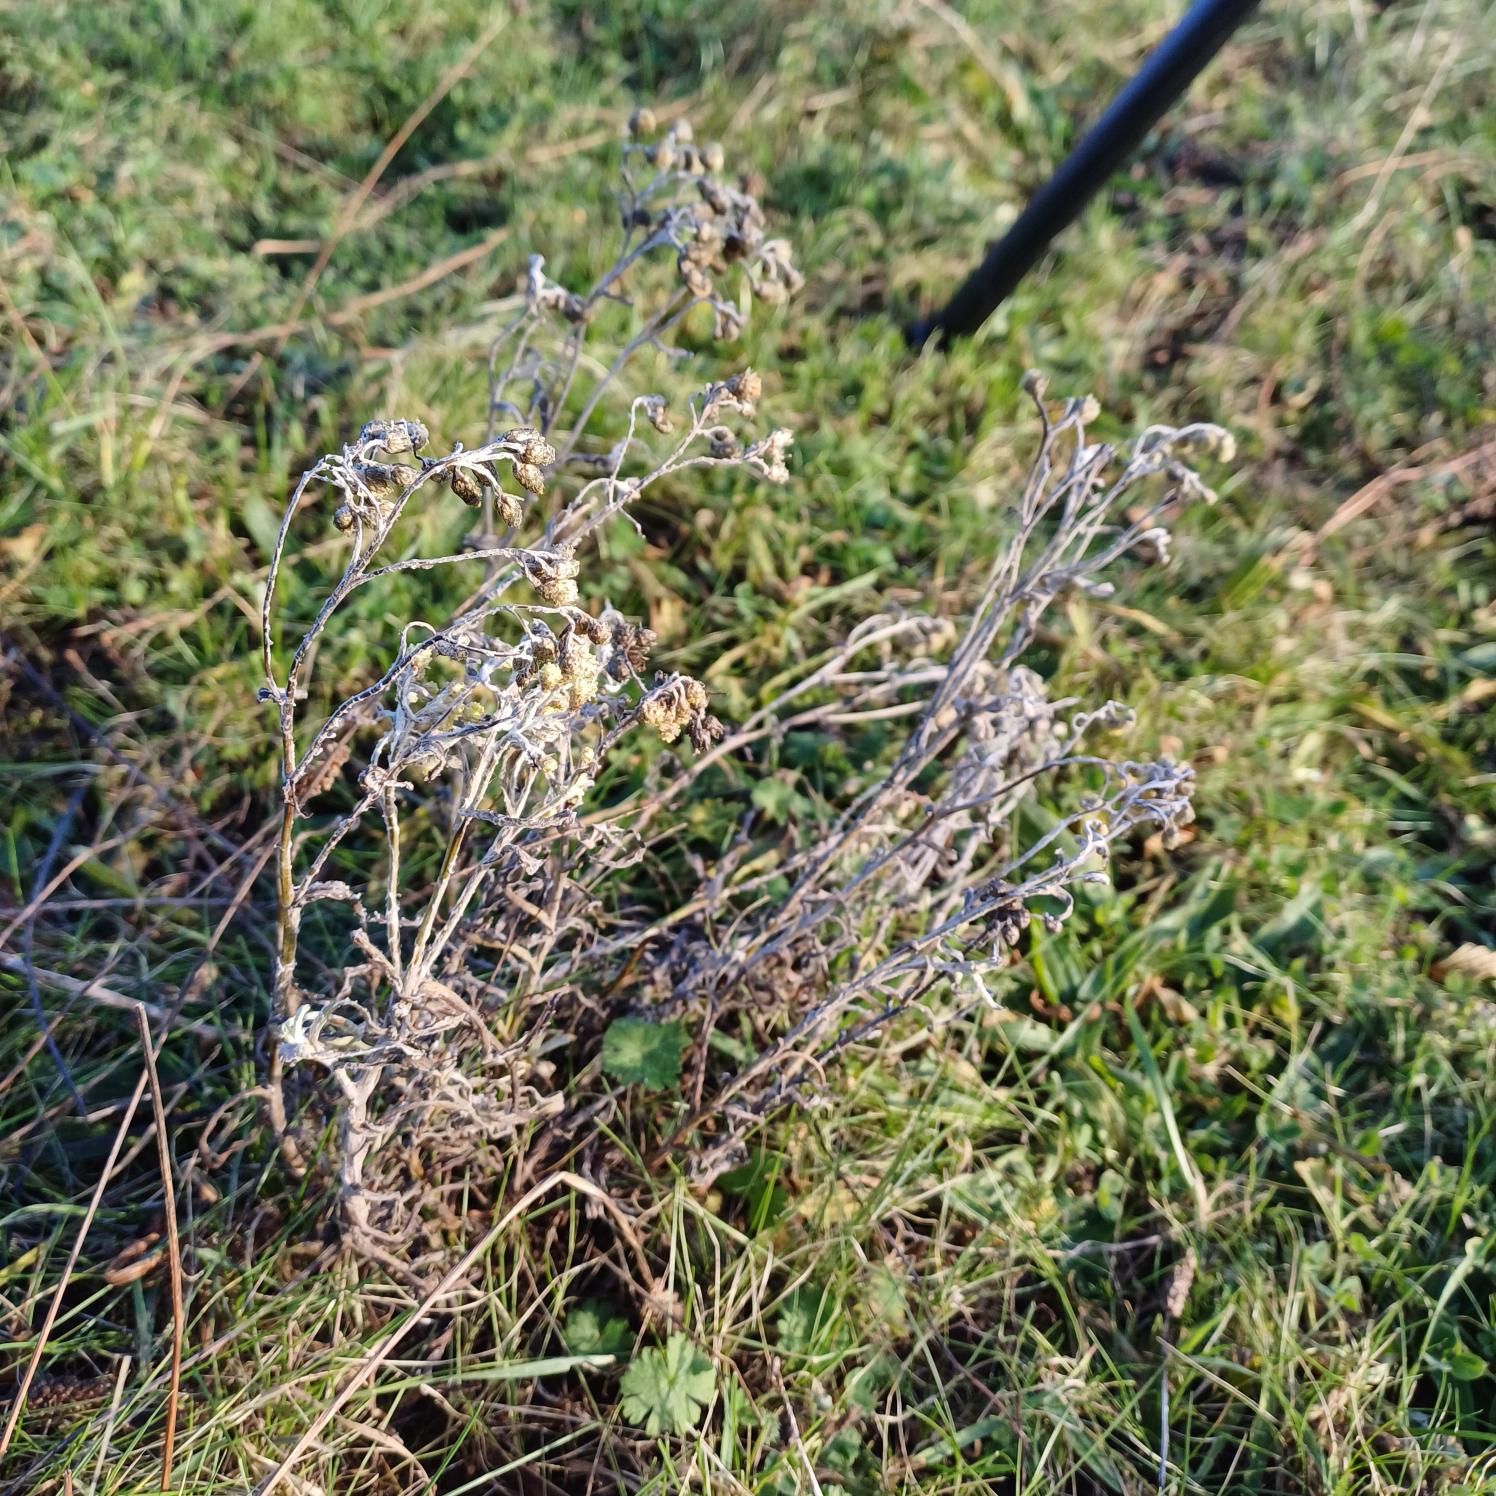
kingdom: Plantae
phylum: Tracheophyta
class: Magnoliopsida
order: Asterales
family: Asteraceae
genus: Helichrysum
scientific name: Helichrysum arenarium
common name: Gul evighedsblomst
